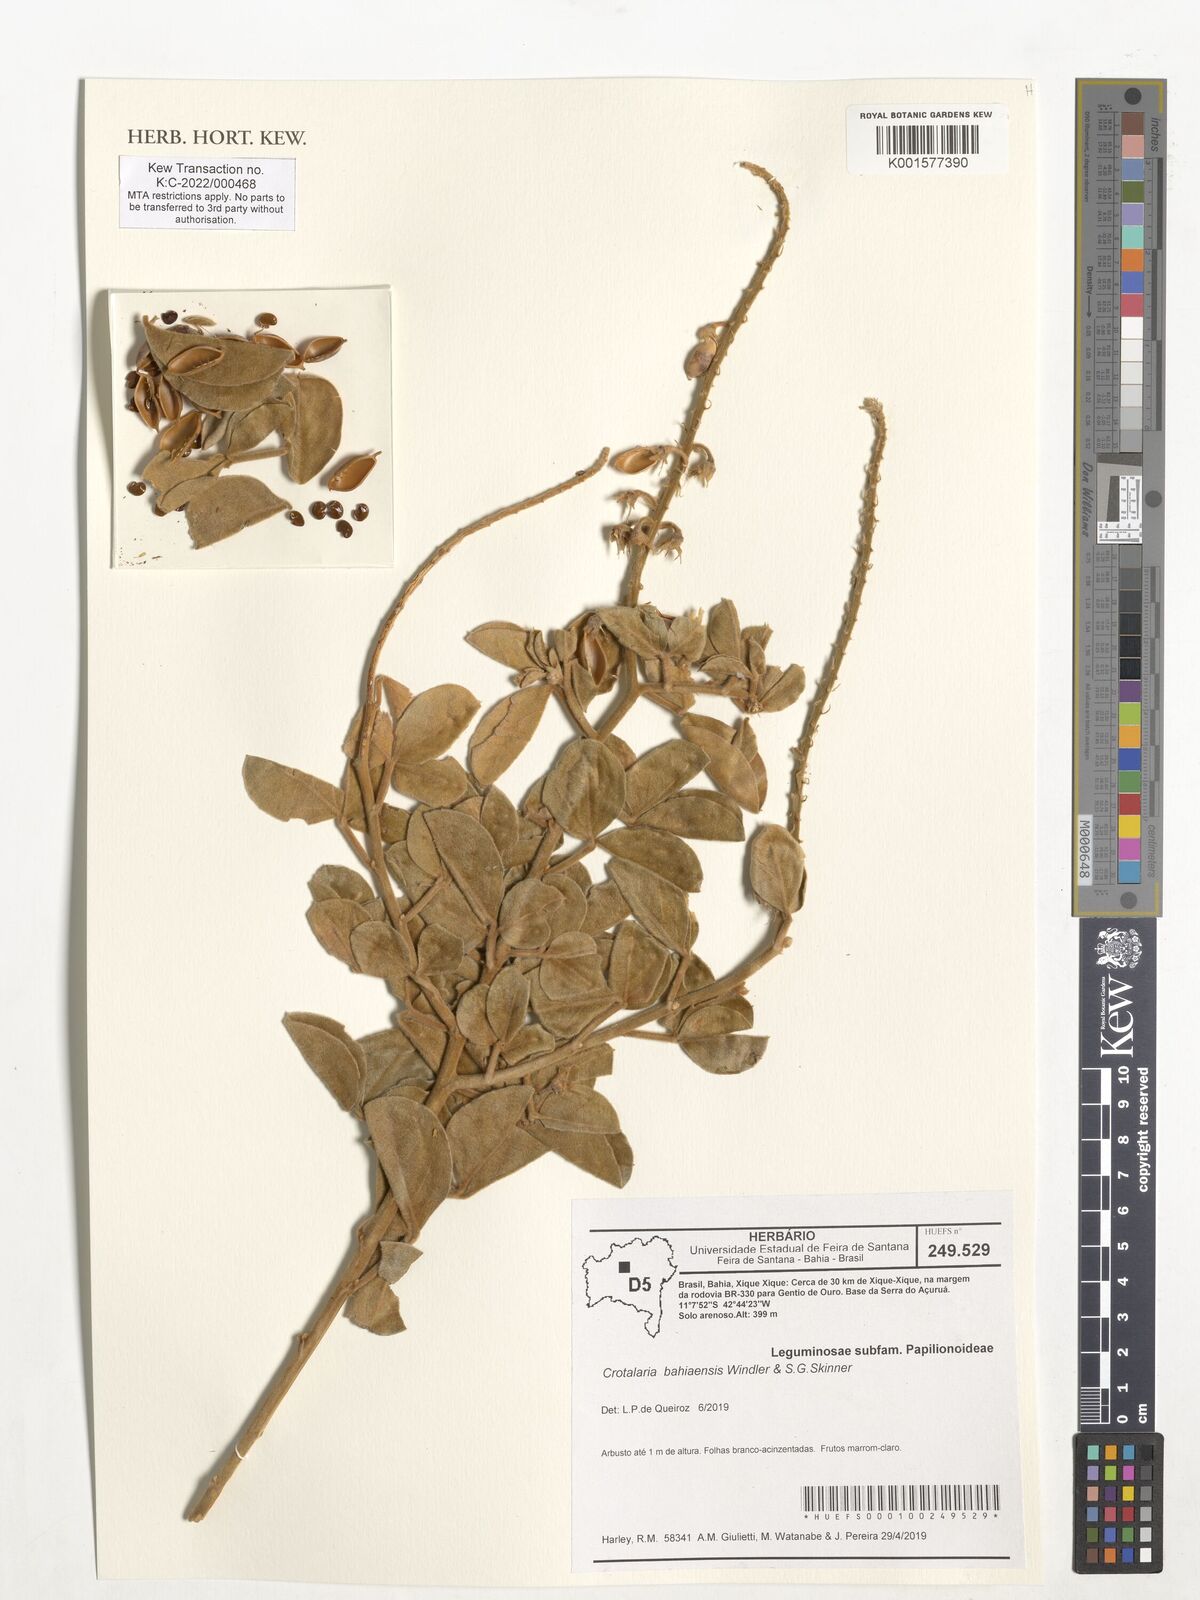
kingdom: Plantae
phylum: Tracheophyta
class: Magnoliopsida
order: Fabales
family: Fabaceae
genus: Crotalaria
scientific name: Crotalaria bahiaensis
